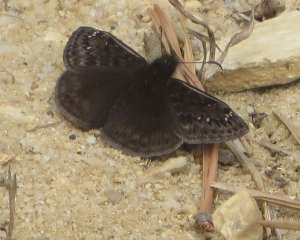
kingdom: Animalia
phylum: Arthropoda
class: Insecta
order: Lepidoptera
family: Hesperiidae
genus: Gesta
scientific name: Gesta
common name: Juvenal's Duskywing
